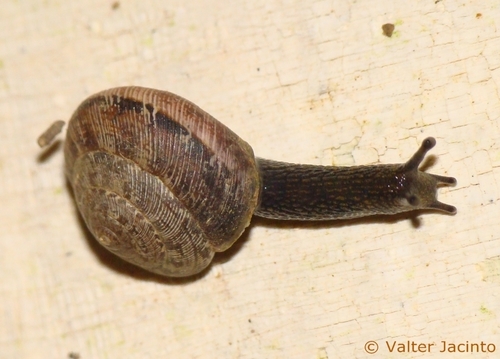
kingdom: Animalia
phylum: Mollusca
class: Gastropoda
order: Stylommatophora
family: Geomitridae
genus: Helicella
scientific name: Helicella cistorum
